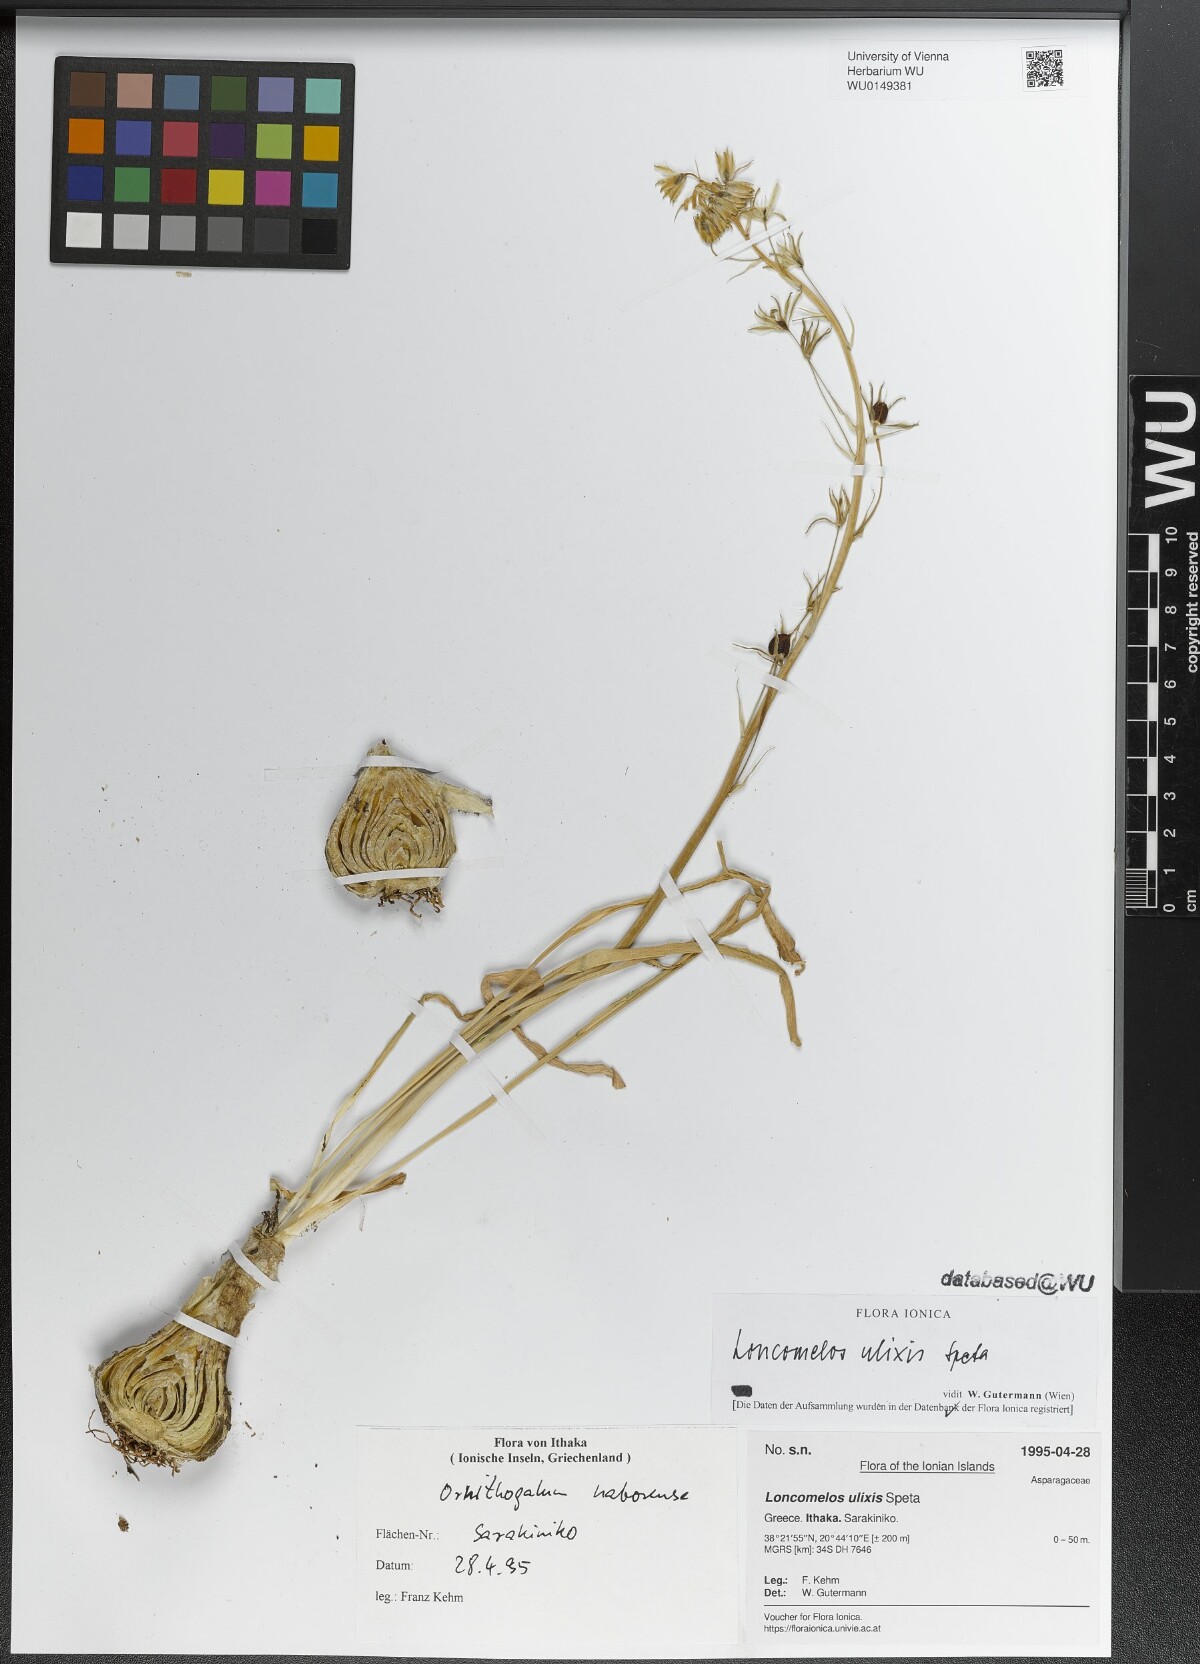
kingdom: Plantae
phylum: Tracheophyta
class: Liliopsida
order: Asparagales
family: Asparagaceae
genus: Ornithogalum
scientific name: Ornithogalum ulixis
